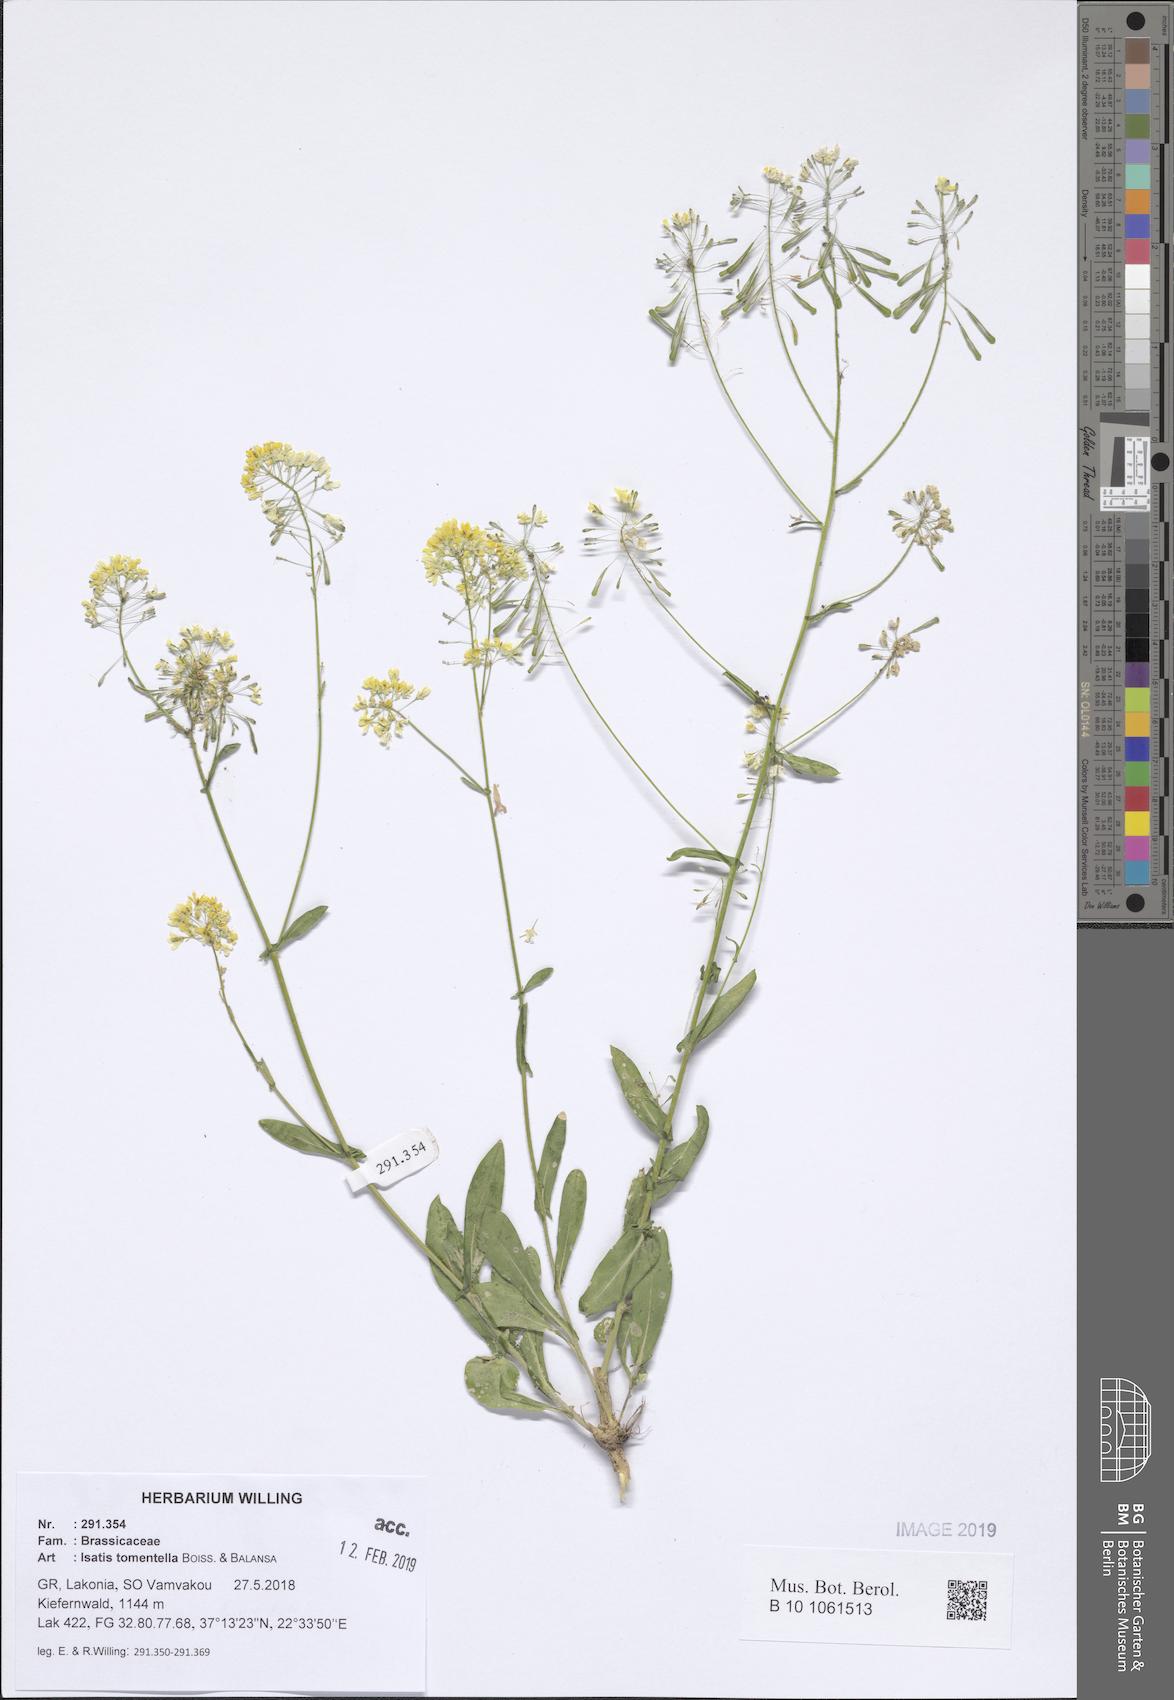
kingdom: Plantae
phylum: Tracheophyta
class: Magnoliopsida
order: Brassicales
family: Brassicaceae
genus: Isatis
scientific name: Isatis tomentella
